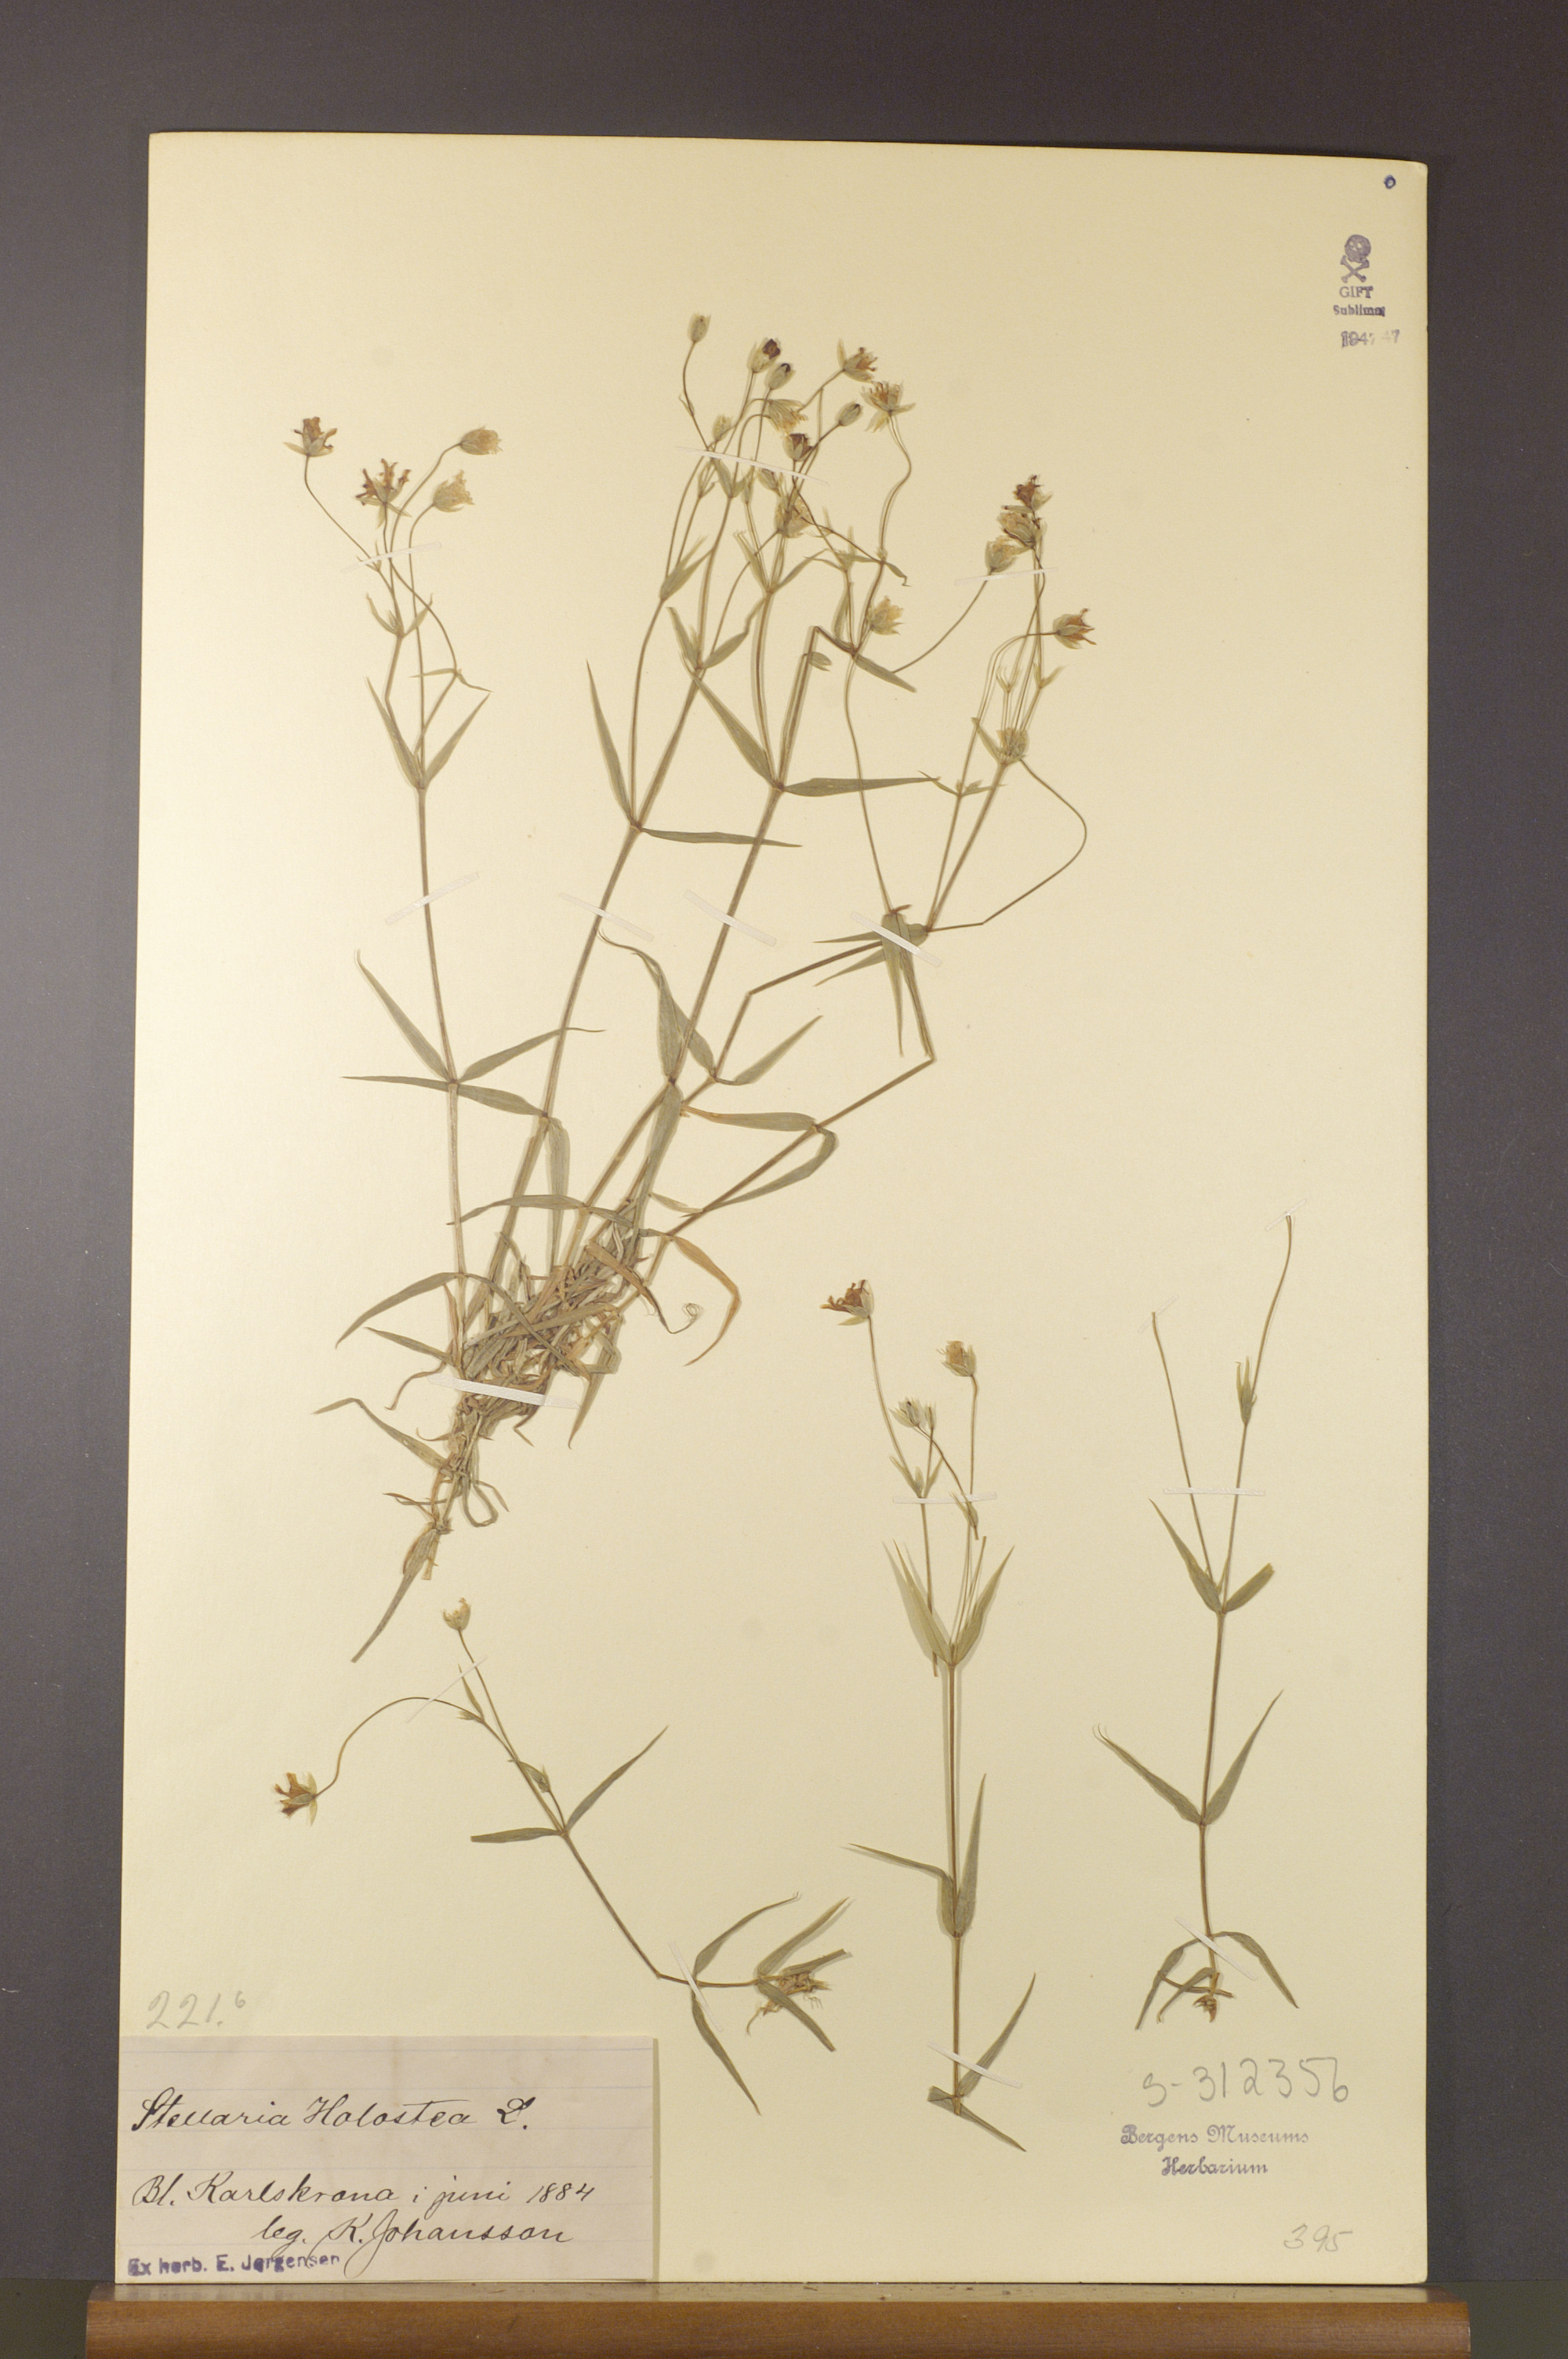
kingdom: Plantae
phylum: Tracheophyta
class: Magnoliopsida
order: Caryophyllales
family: Caryophyllaceae
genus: Rabelera
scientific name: Rabelera holostea
